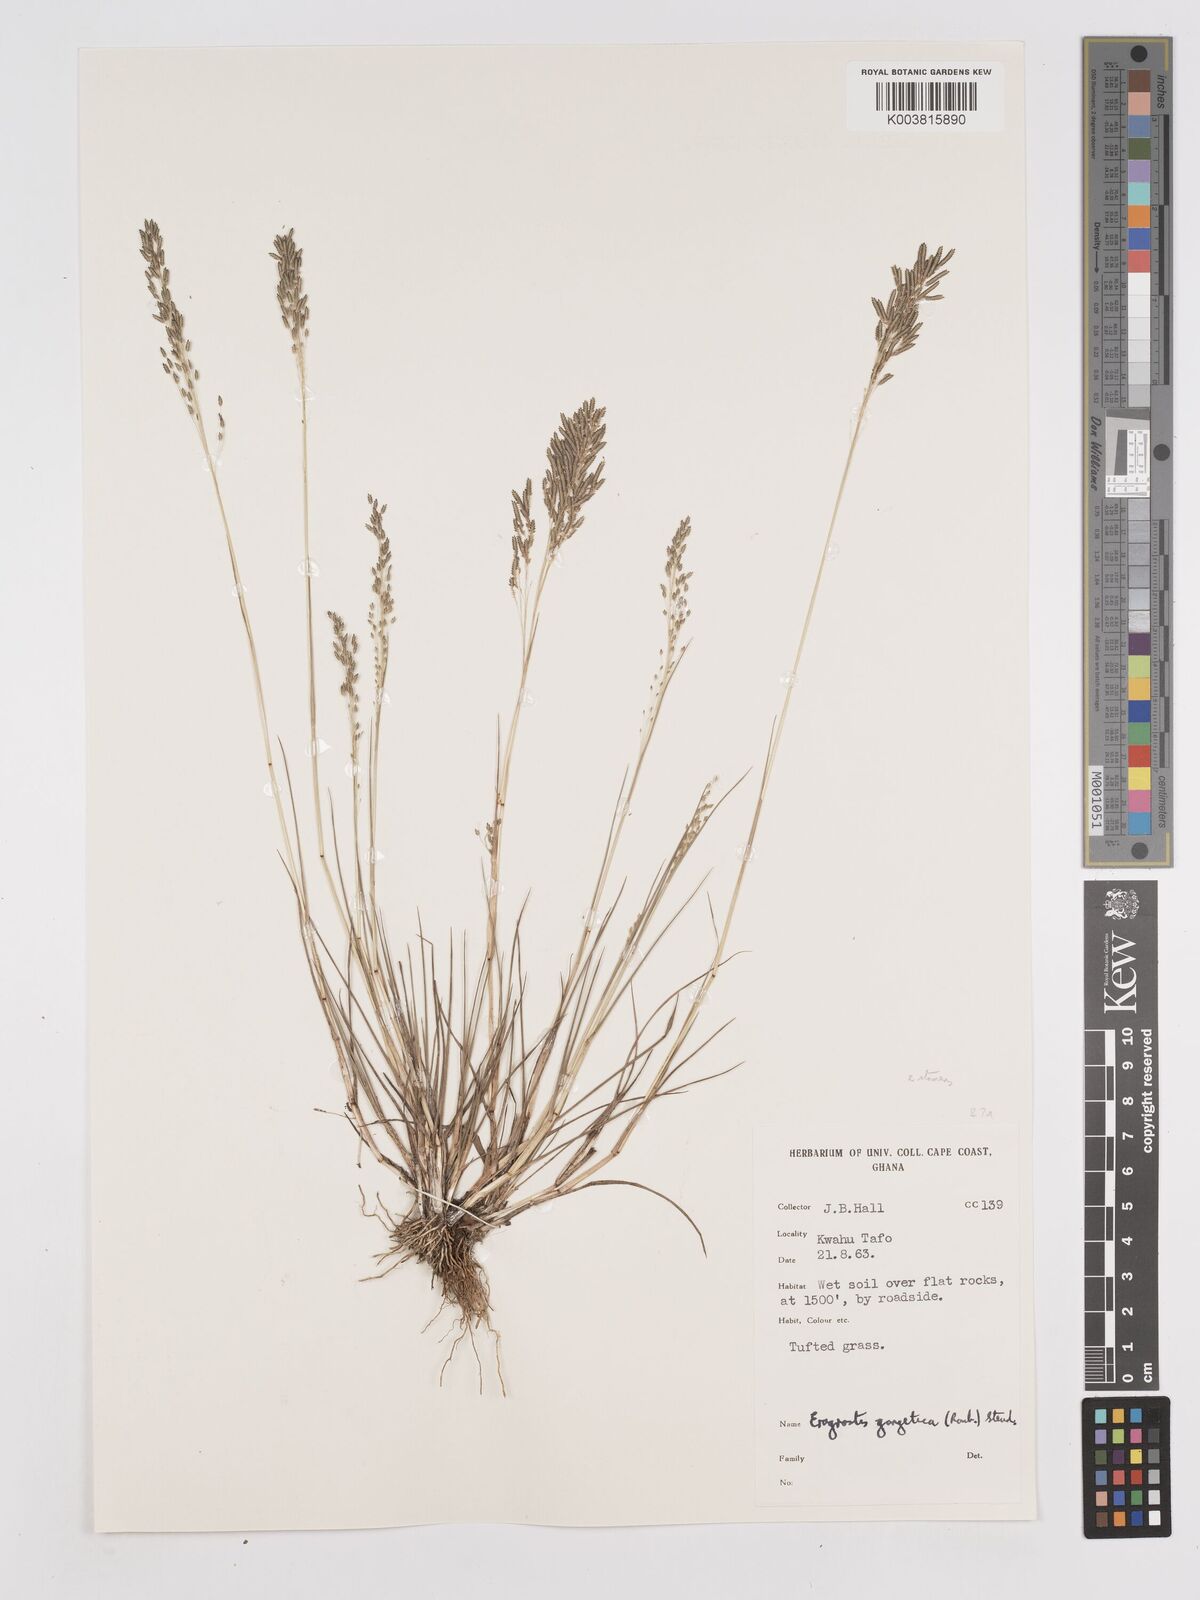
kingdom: Plantae
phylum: Tracheophyta
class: Liliopsida
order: Poales
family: Poaceae
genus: Eragrostis
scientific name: Eragrostis gangetica
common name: Slimflower lovegrass
